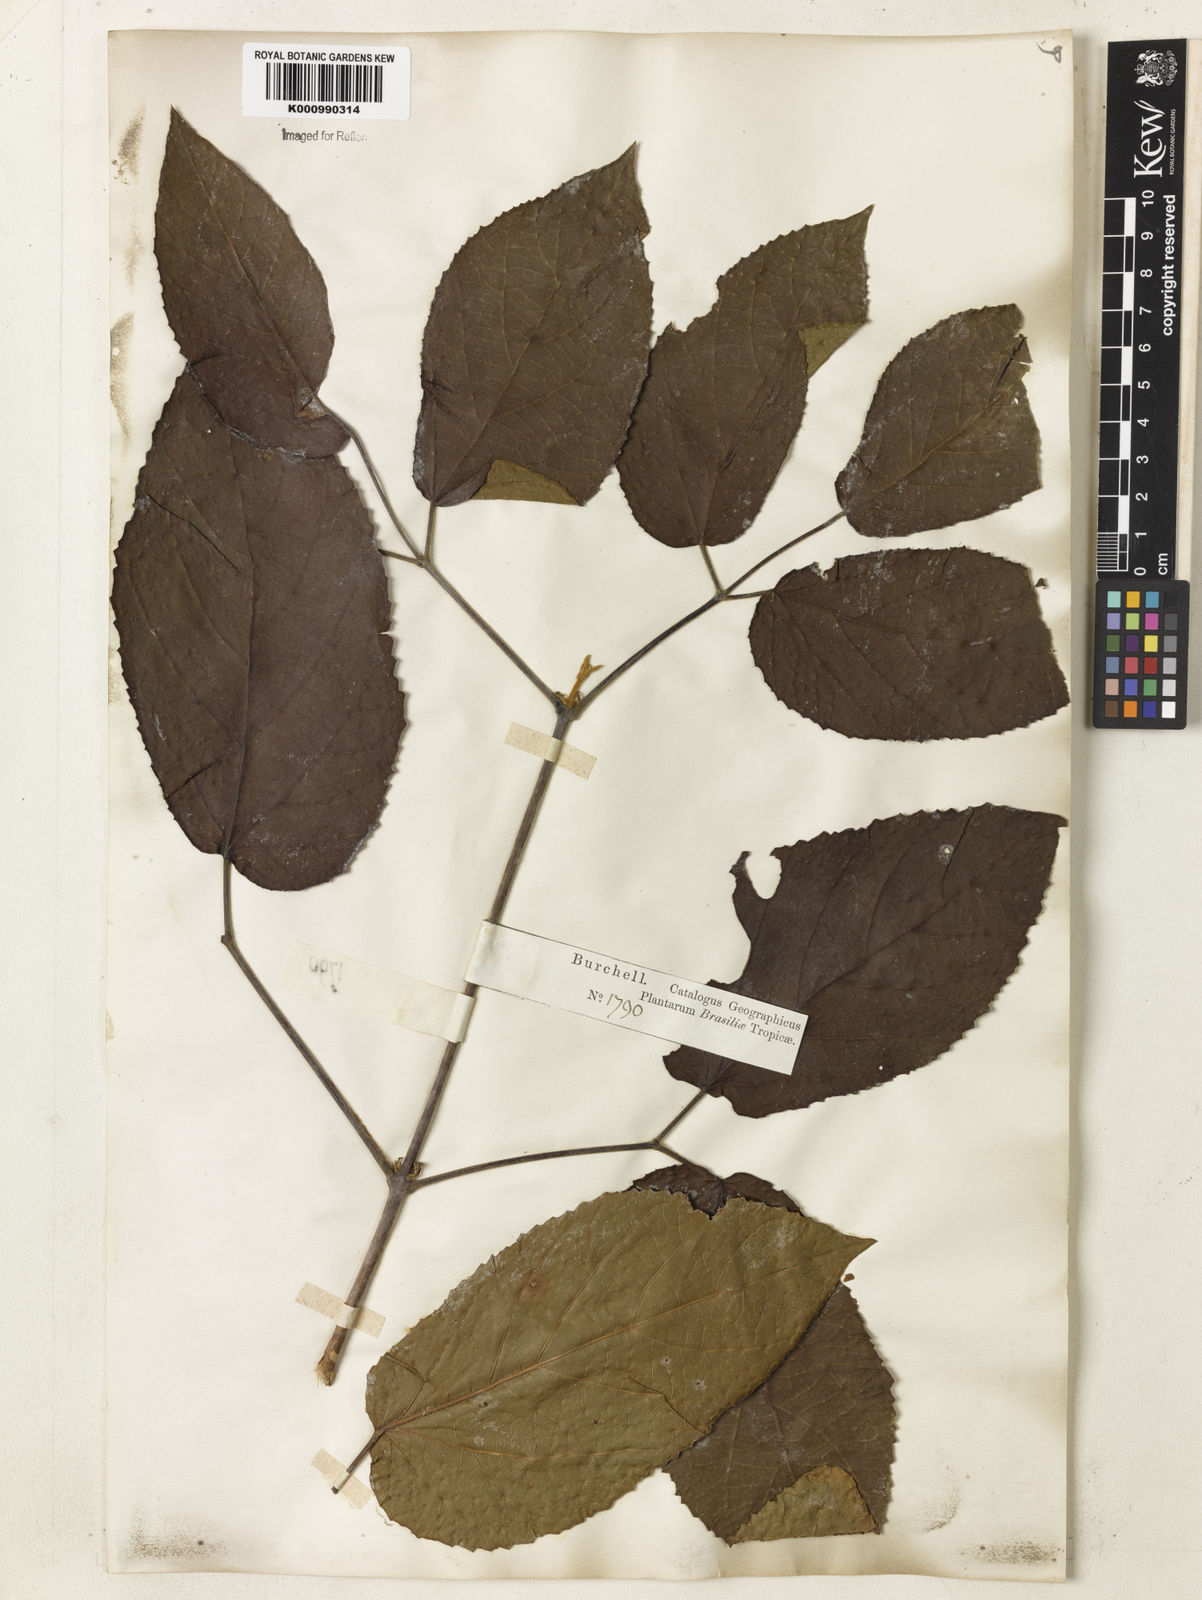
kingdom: Plantae
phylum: Tracheophyta
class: Magnoliopsida
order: Lamiales
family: Bignoniaceae
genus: Stizophyllum
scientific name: Stizophyllum perforatum
